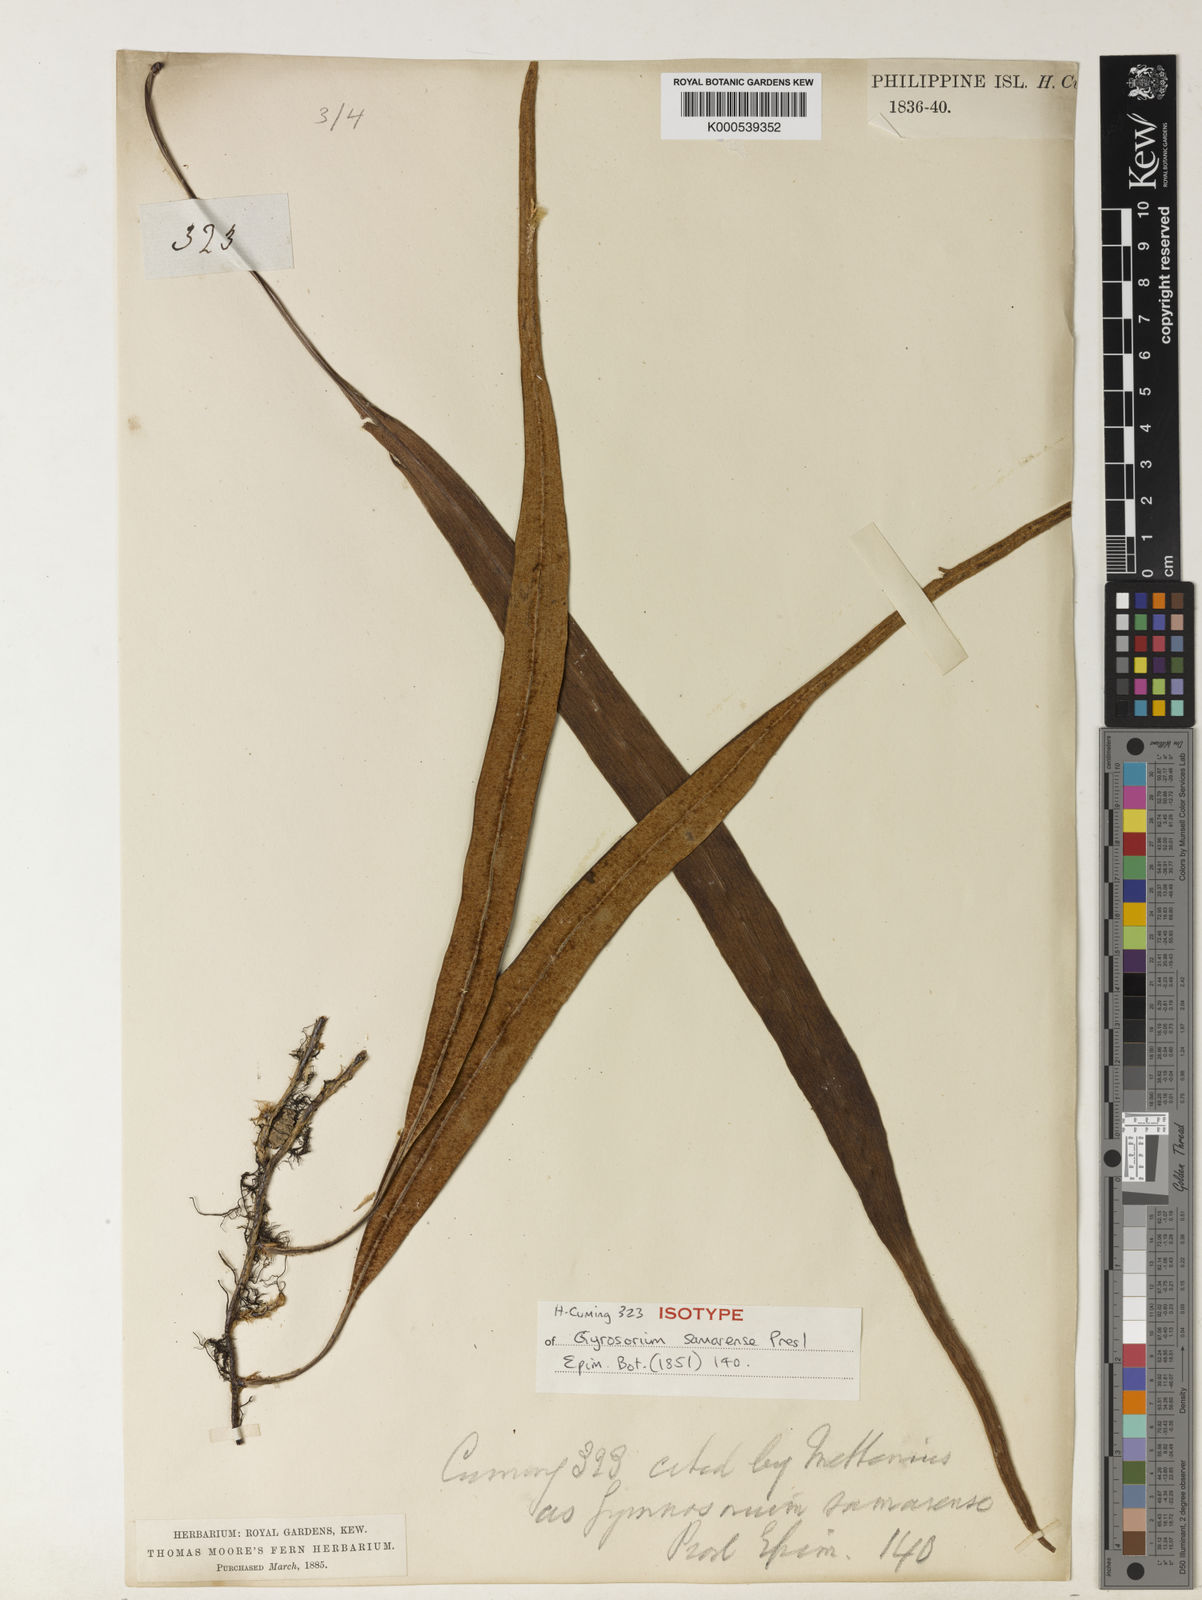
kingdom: Plantae
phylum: Tracheophyta
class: Polypodiopsida
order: Polypodiales
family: Polypodiaceae
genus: Pyrrosia
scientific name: Pyrrosia samarensis
